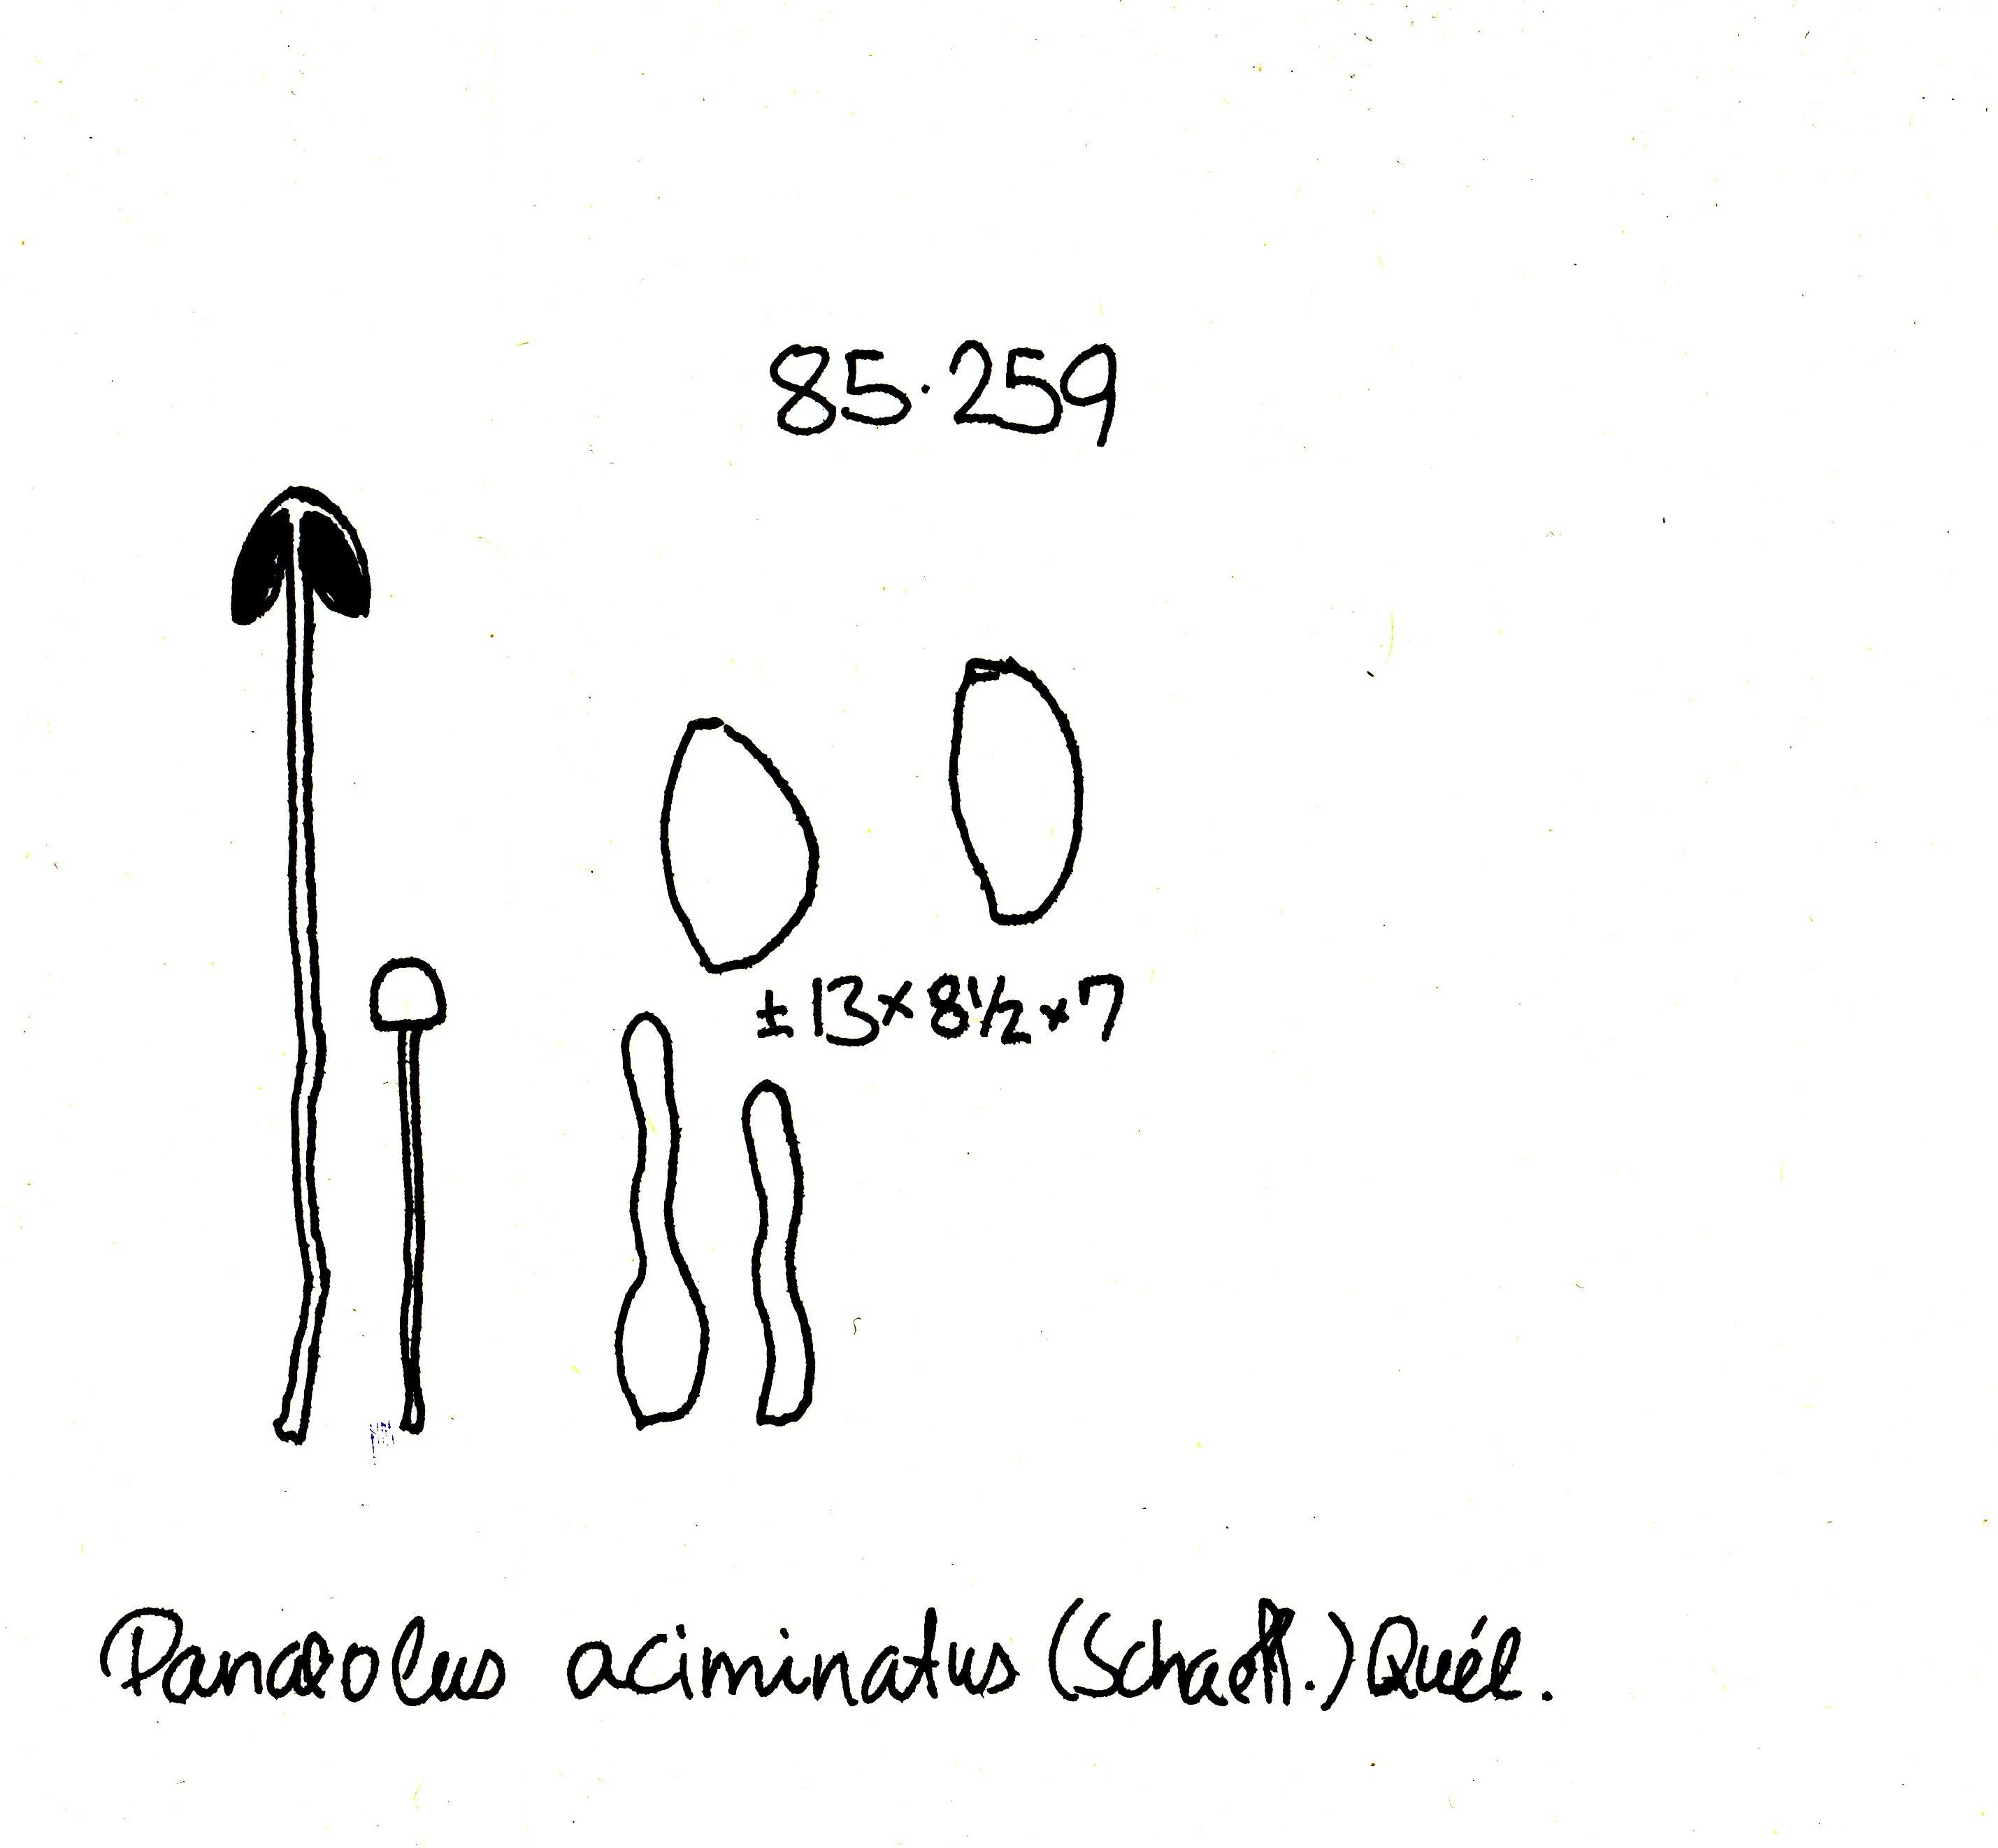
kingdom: Fungi
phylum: Basidiomycota
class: Agaricomycetes
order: Agaricales
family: Bolbitiaceae
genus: Panaeolus
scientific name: Panaeolus acuminatus
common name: høj glanshat
